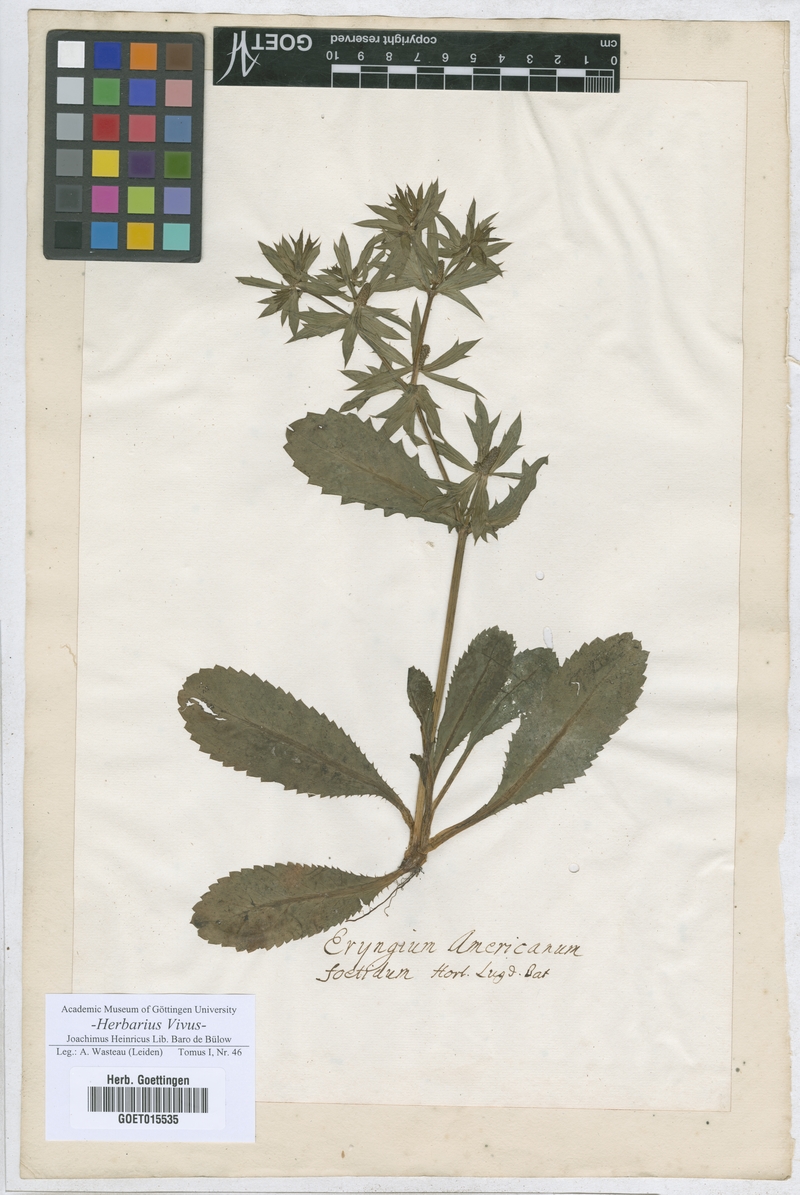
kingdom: Plantae
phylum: Tracheophyta
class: Magnoliopsida
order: Apiales
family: Apiaceae
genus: Eryngium
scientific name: Eryngium foetidum
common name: Fitweed
